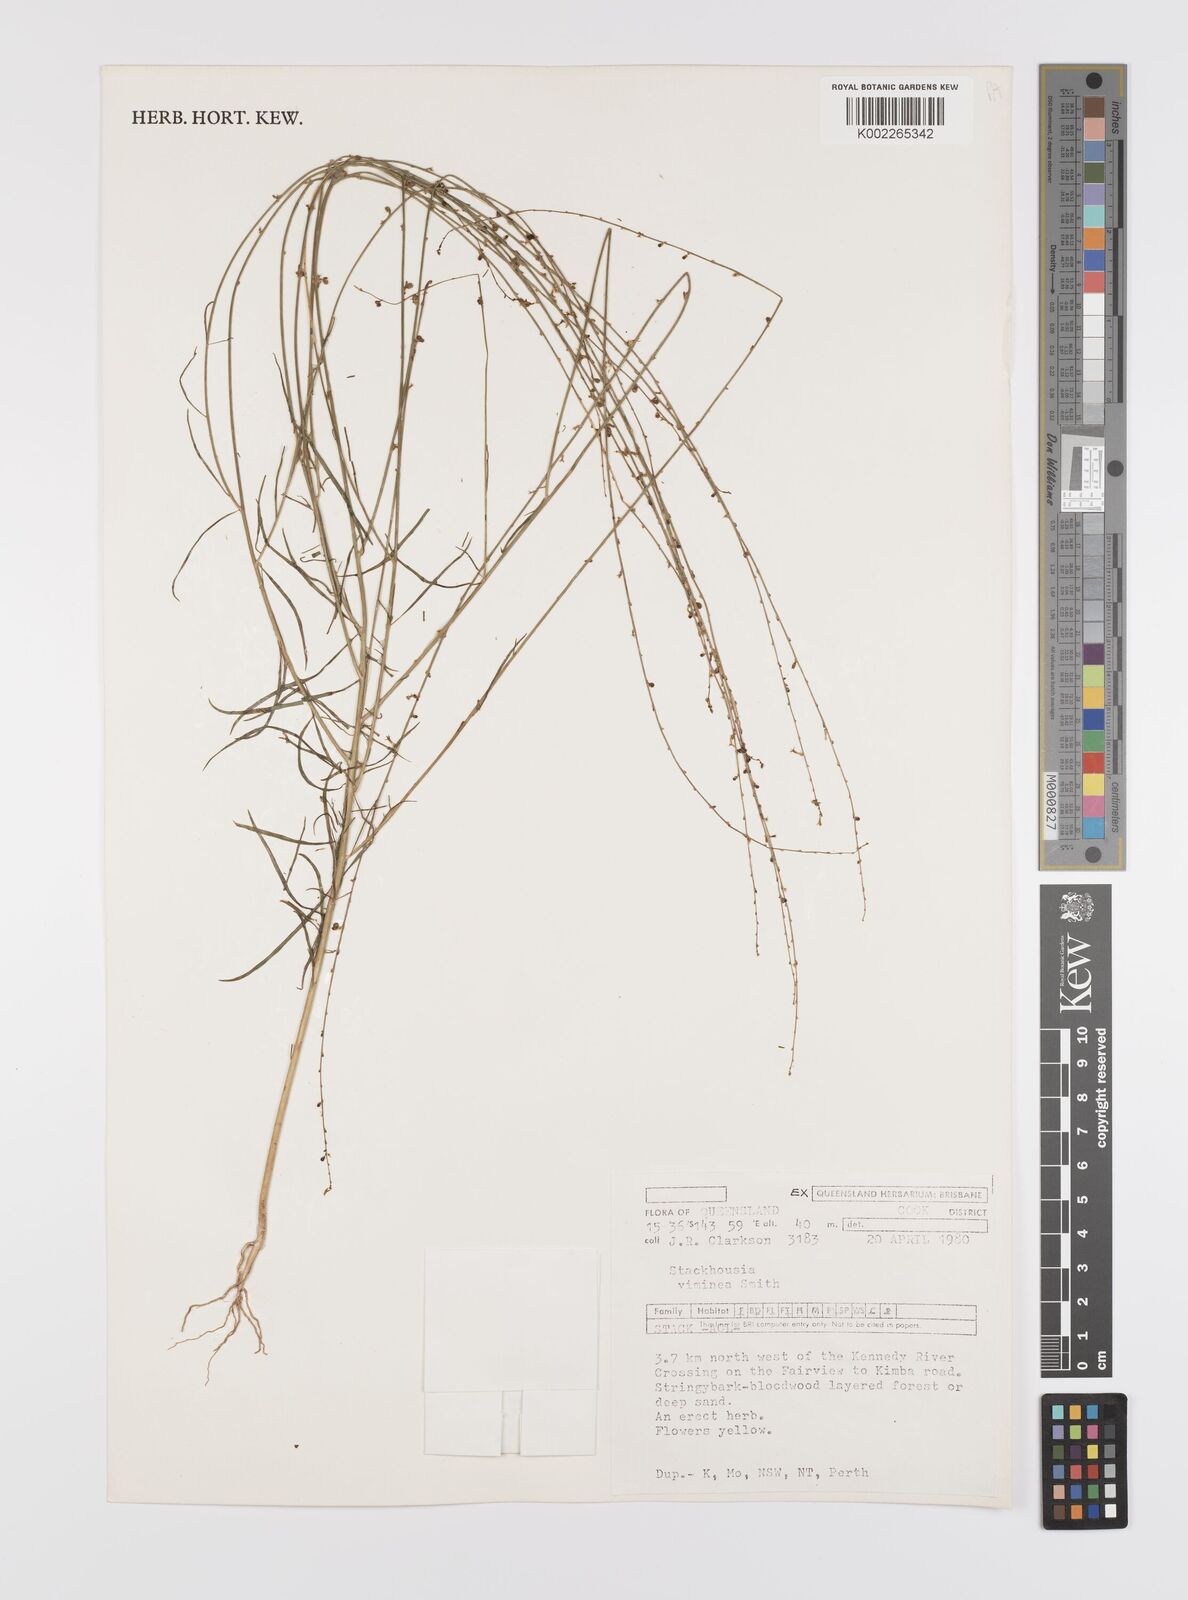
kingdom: Plantae
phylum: Tracheophyta
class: Magnoliopsida
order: Celastrales
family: Celastraceae
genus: Stackhousia
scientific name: Stackhousia viminea
